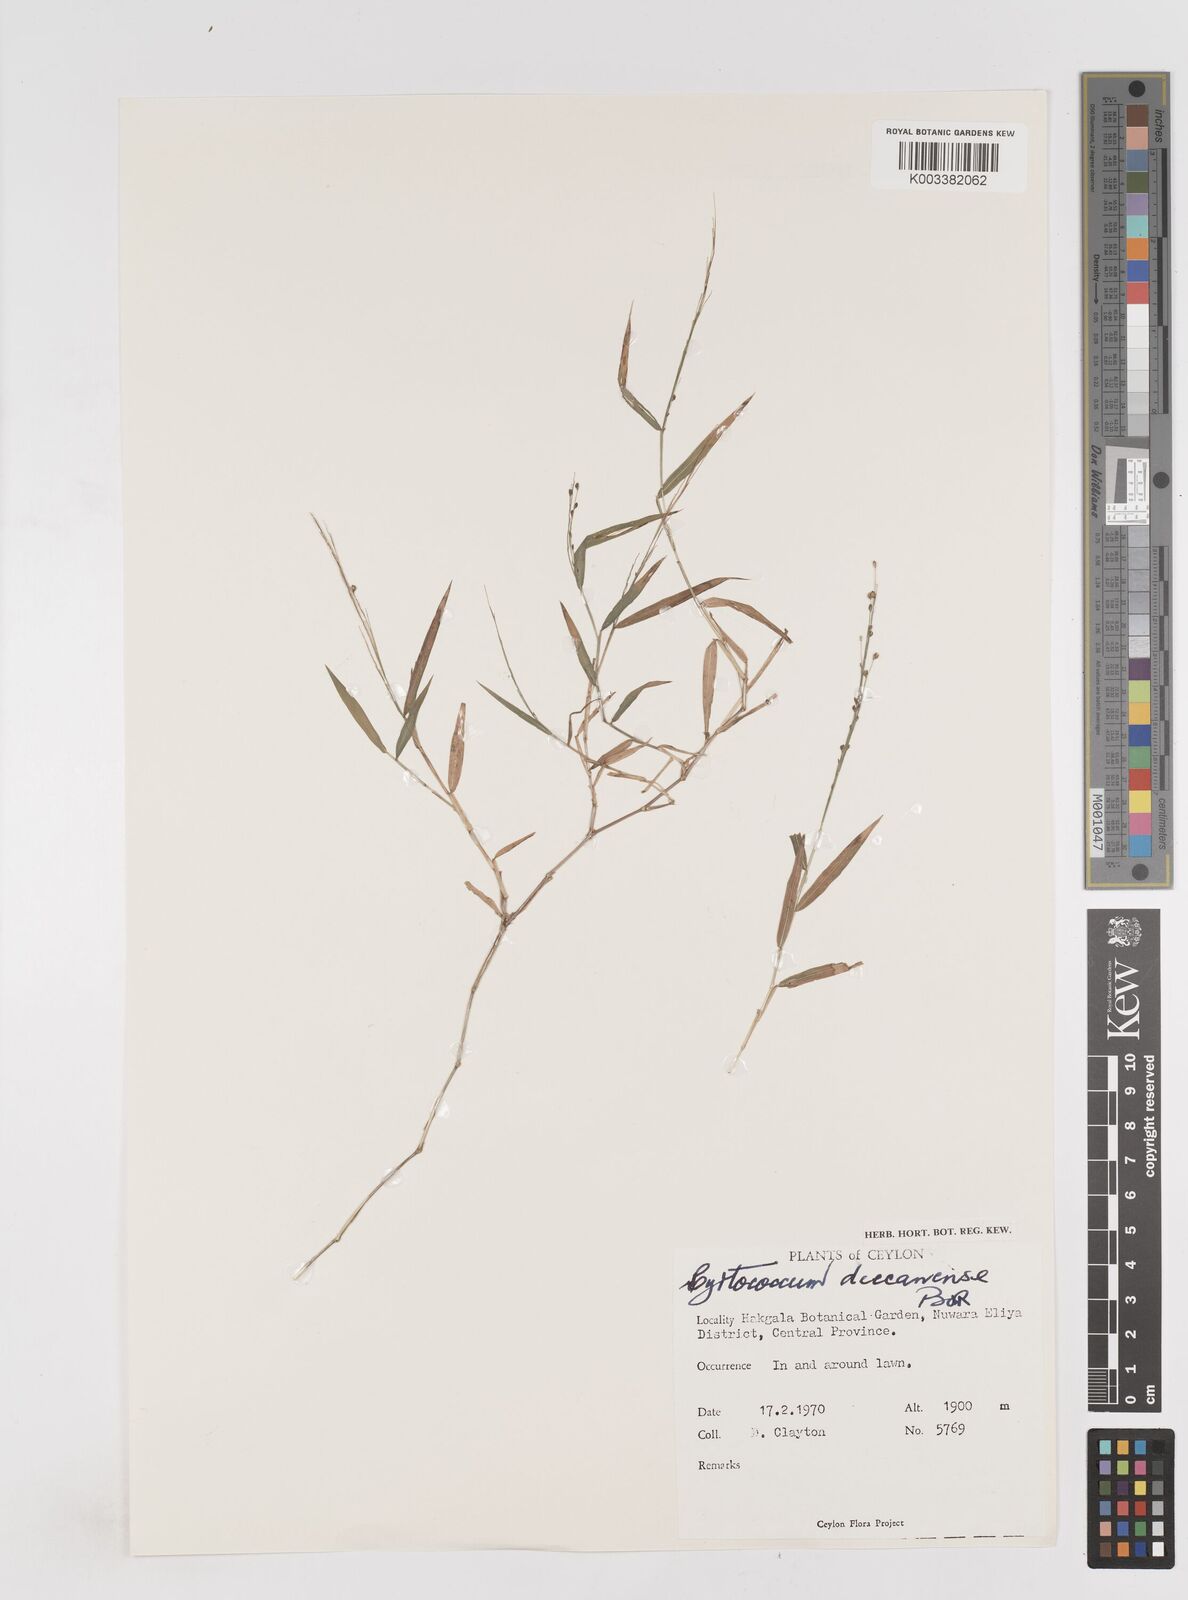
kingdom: Plantae
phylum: Tracheophyta
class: Liliopsida
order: Poales
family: Poaceae
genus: Cyrtococcum
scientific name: Cyrtococcum deccanense
